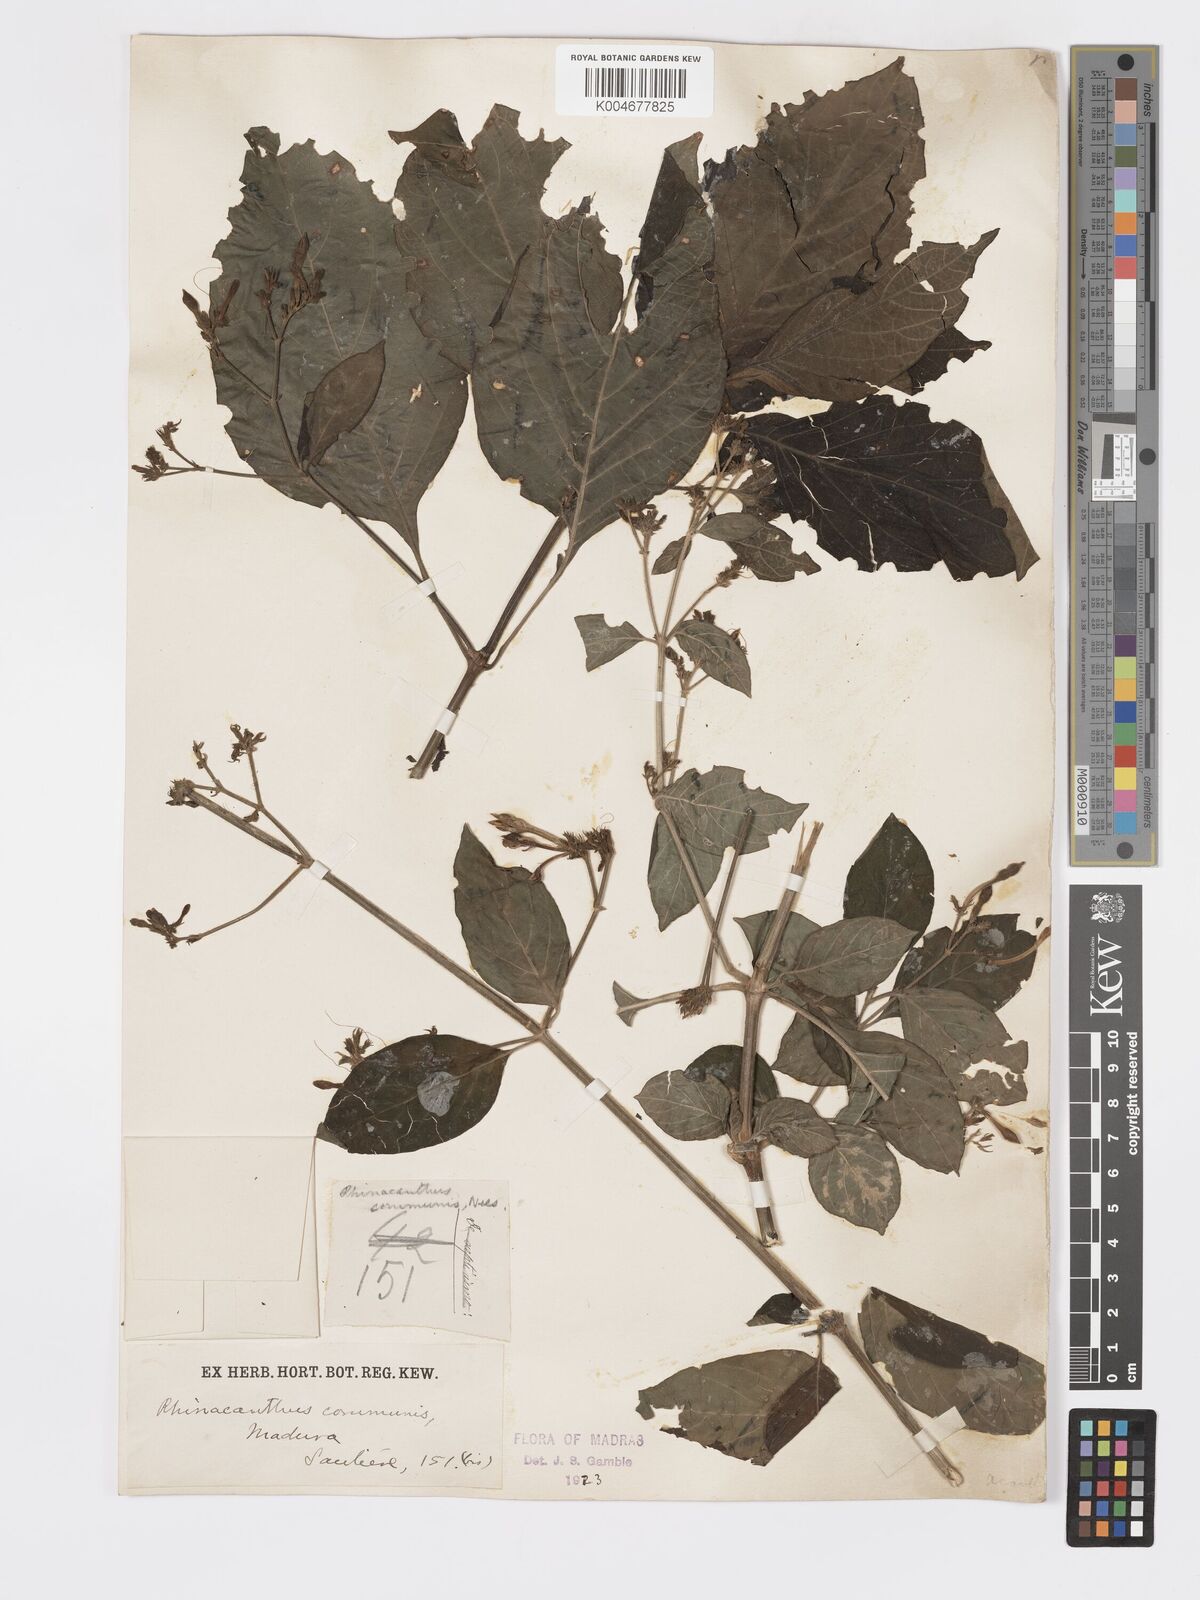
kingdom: Plantae
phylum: Tracheophyta
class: Magnoliopsida
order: Lamiales
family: Acanthaceae
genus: Rhinacanthus
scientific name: Rhinacanthus nasutus
